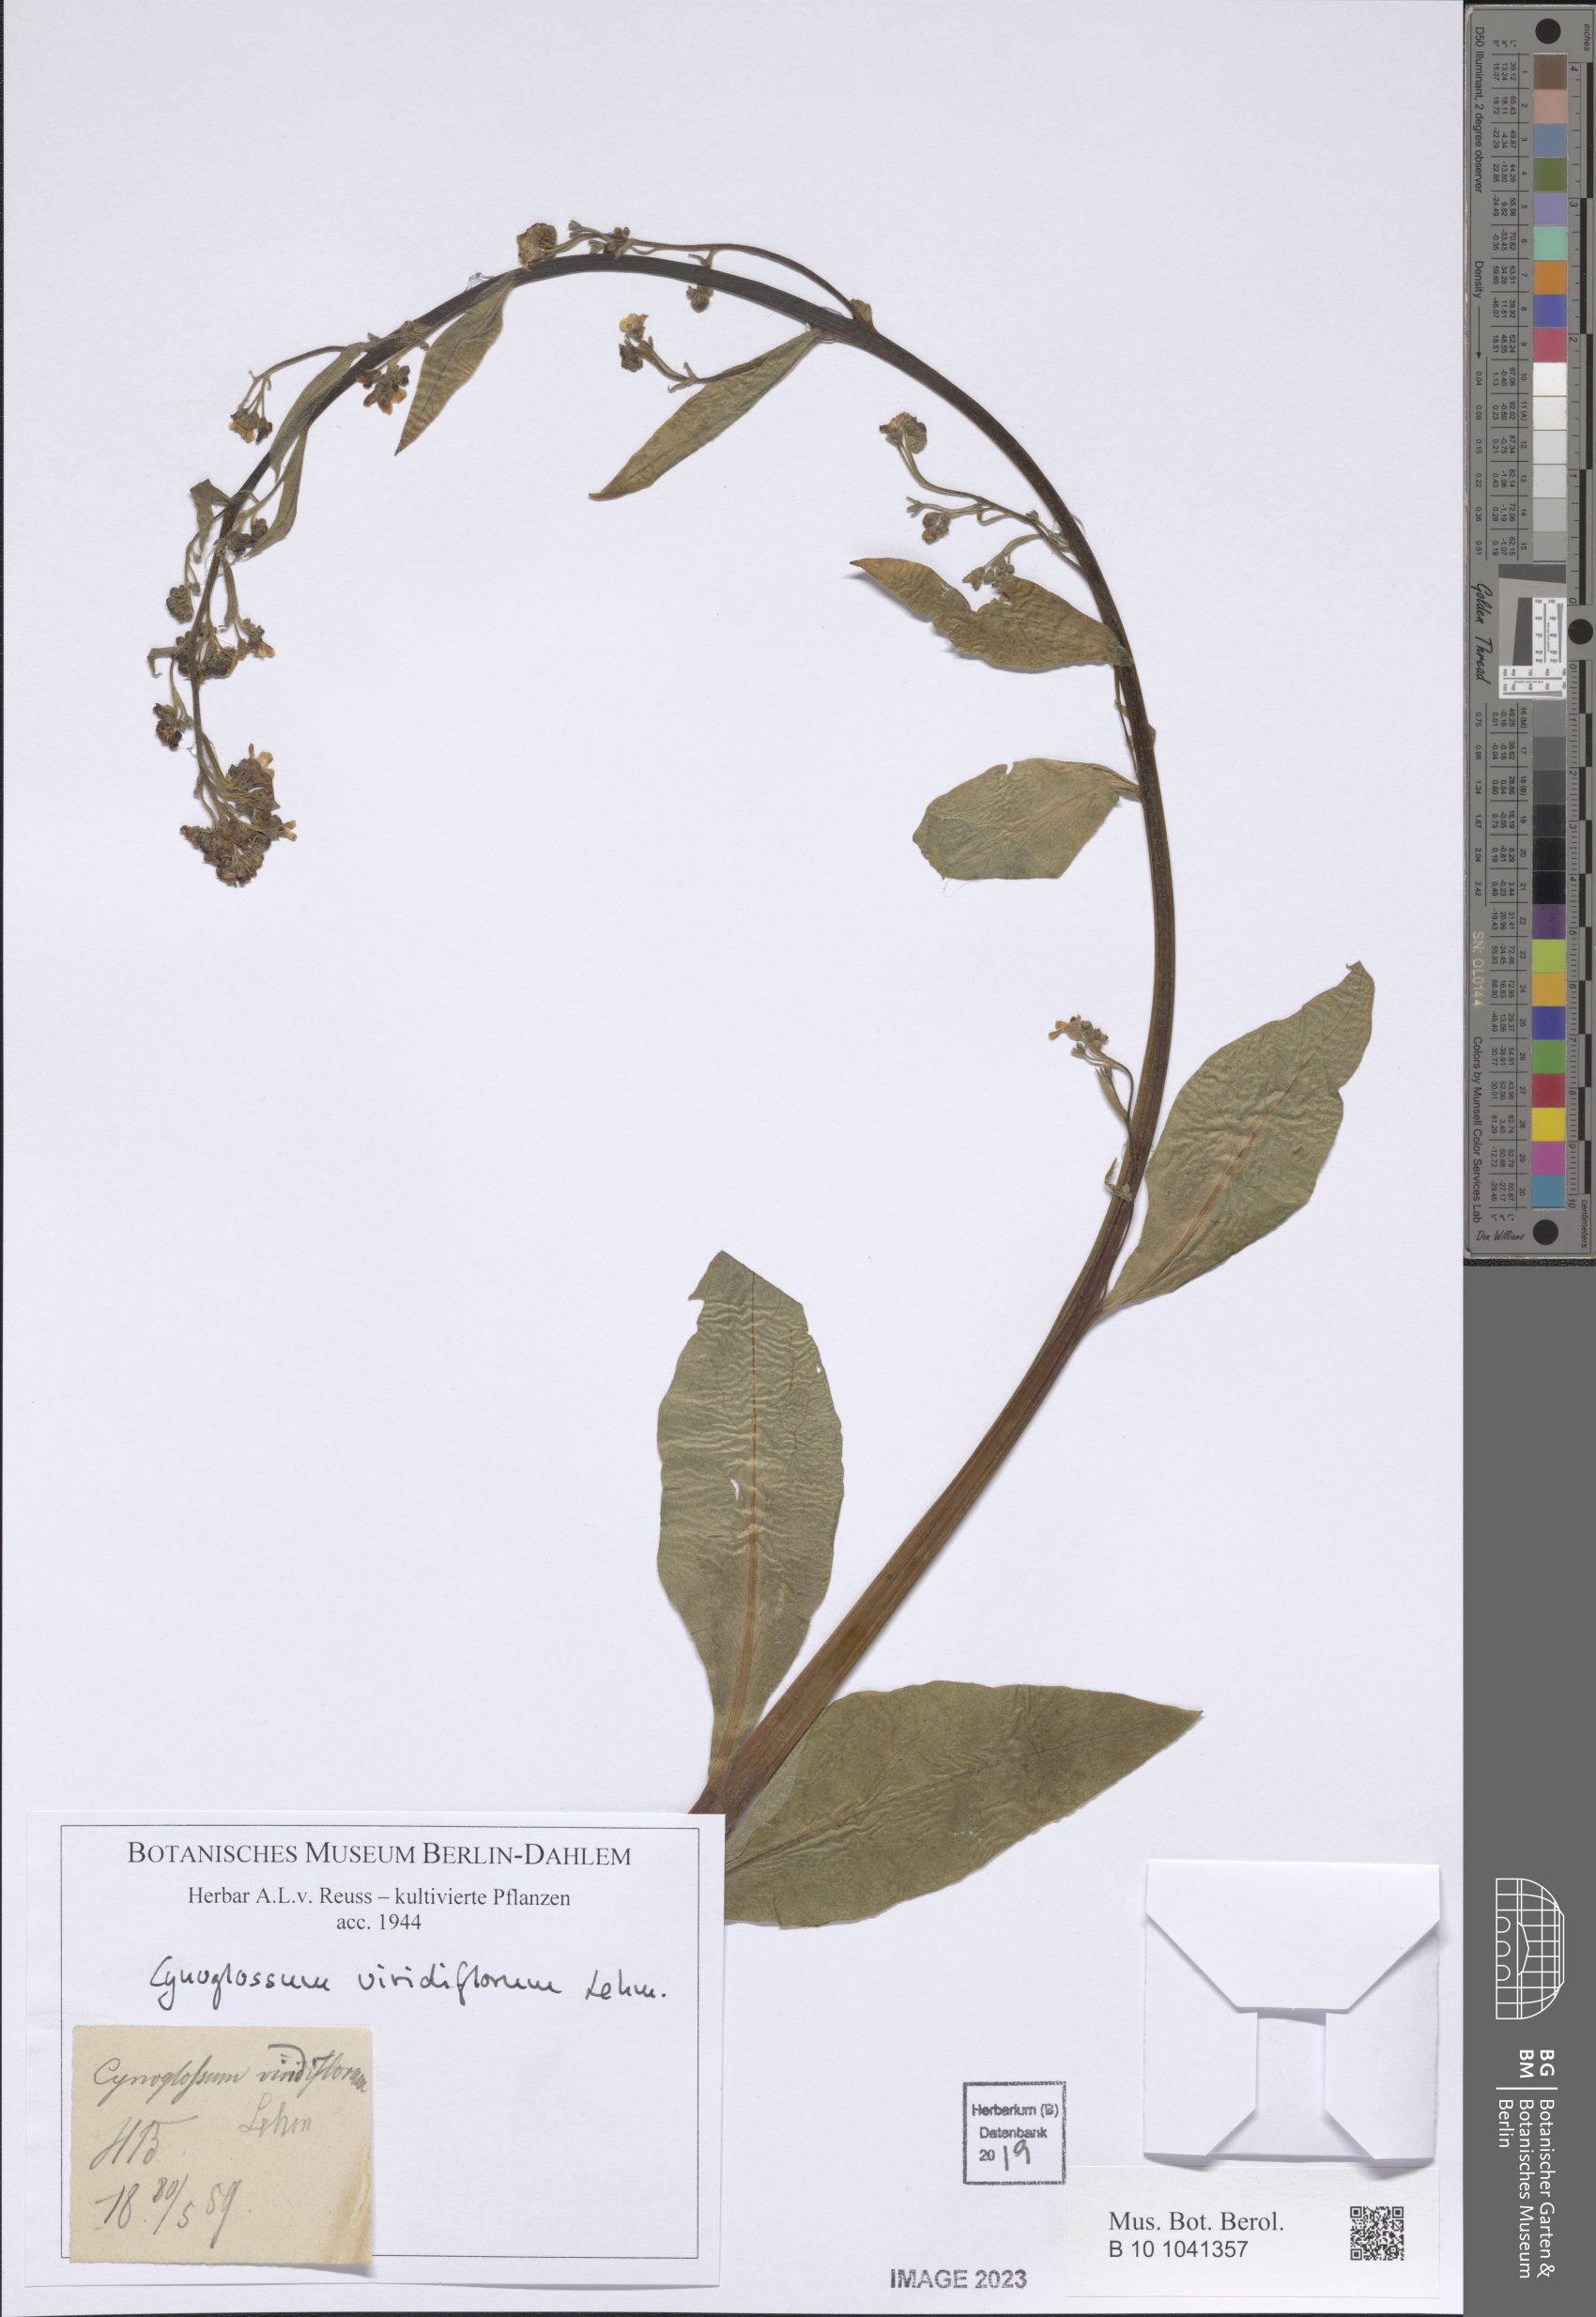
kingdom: Plantae
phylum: Tracheophyta
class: Magnoliopsida
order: Boraginales
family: Boraginaceae
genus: Cynoglossum
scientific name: Cynoglossum viridiflorum
